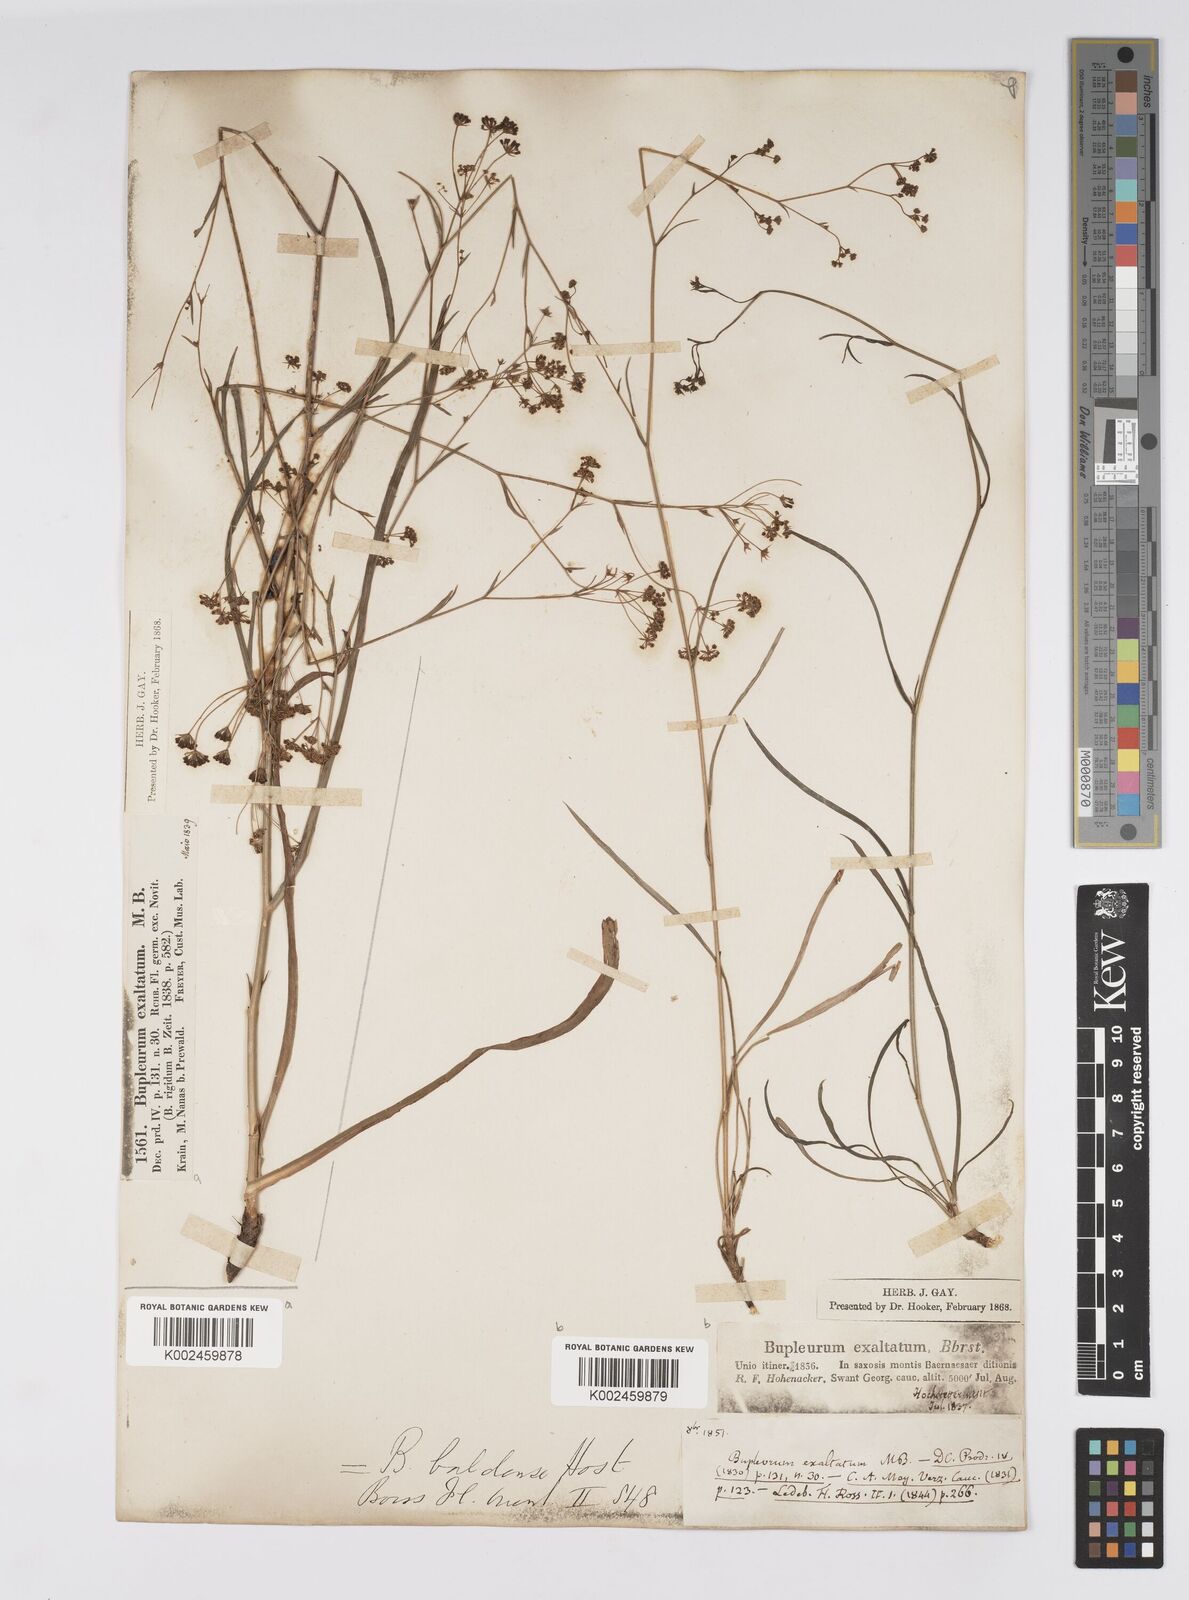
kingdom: Plantae
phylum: Tracheophyta
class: Magnoliopsida
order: Apiales
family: Apiaceae
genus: Bupleurum
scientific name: Bupleurum falcatum
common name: Sickle-leaved hare's-ear
